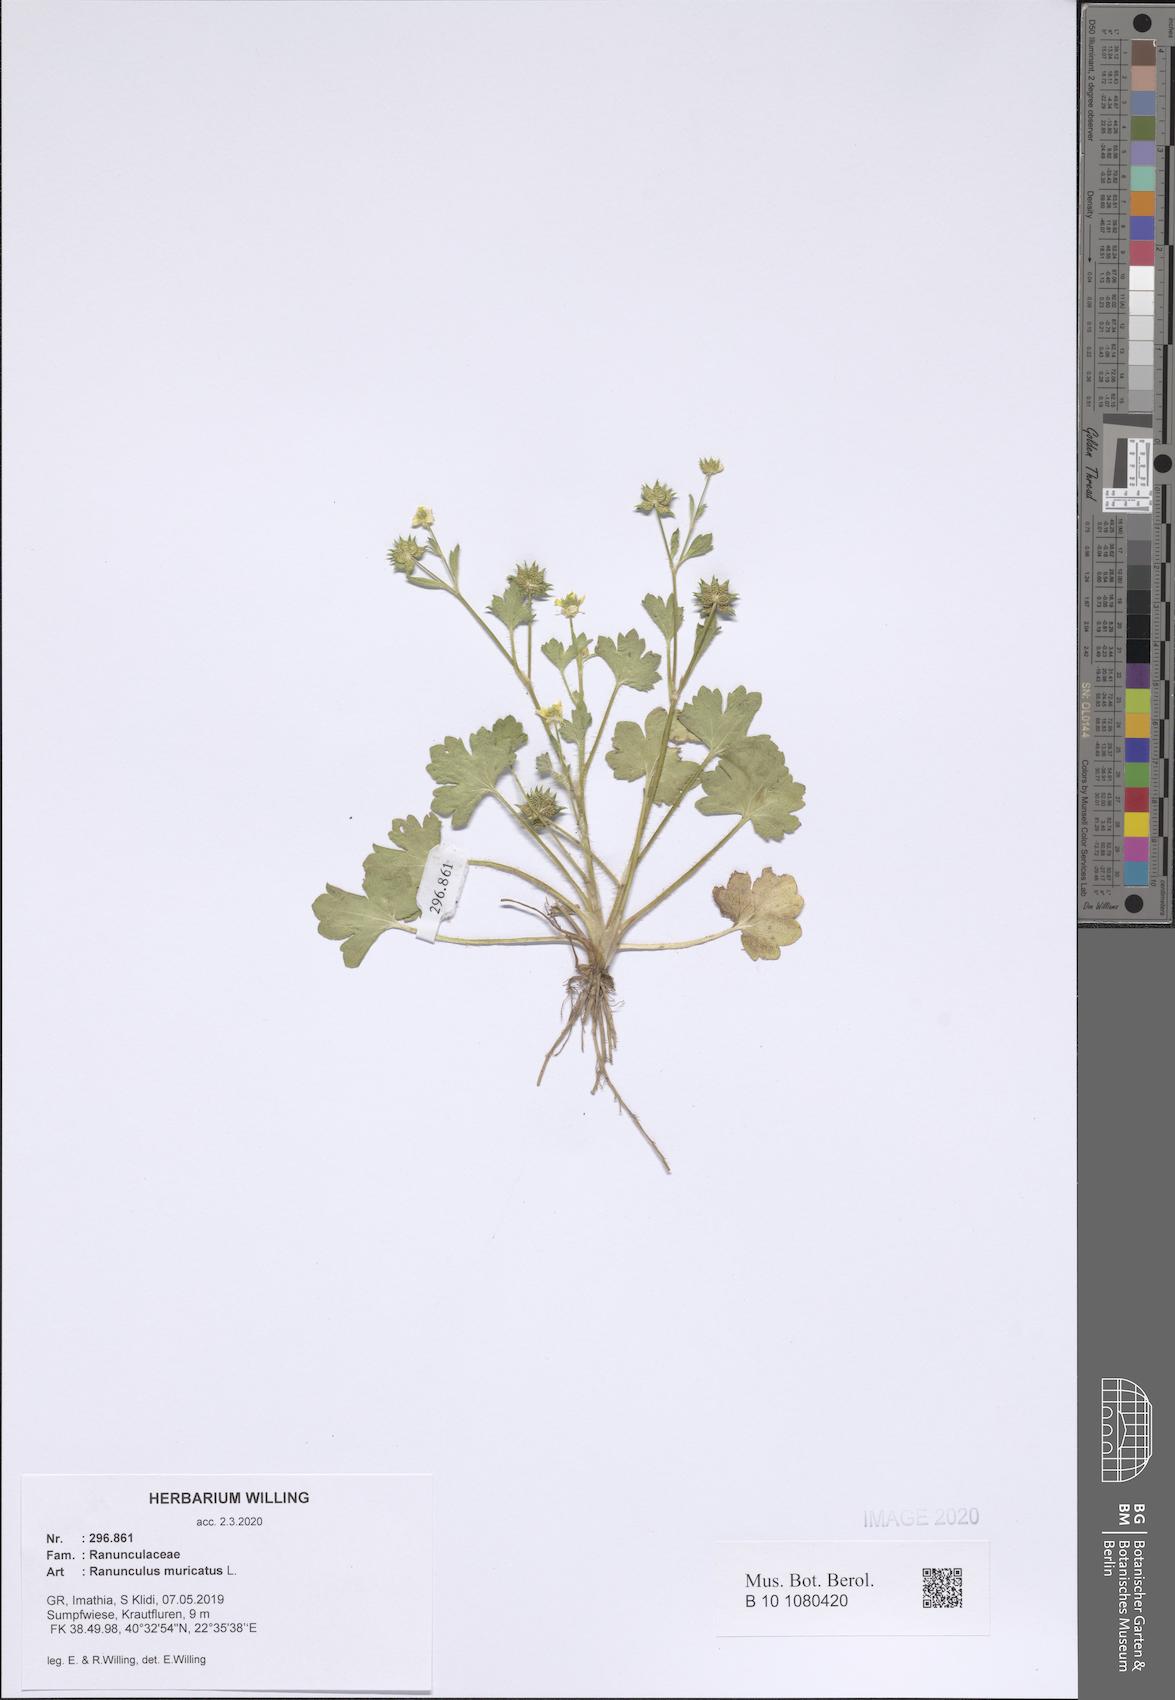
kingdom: Plantae
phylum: Tracheophyta
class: Magnoliopsida
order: Ranunculales
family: Ranunculaceae
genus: Ranunculus
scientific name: Ranunculus muricatus
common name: Rough-fruited buttercup
